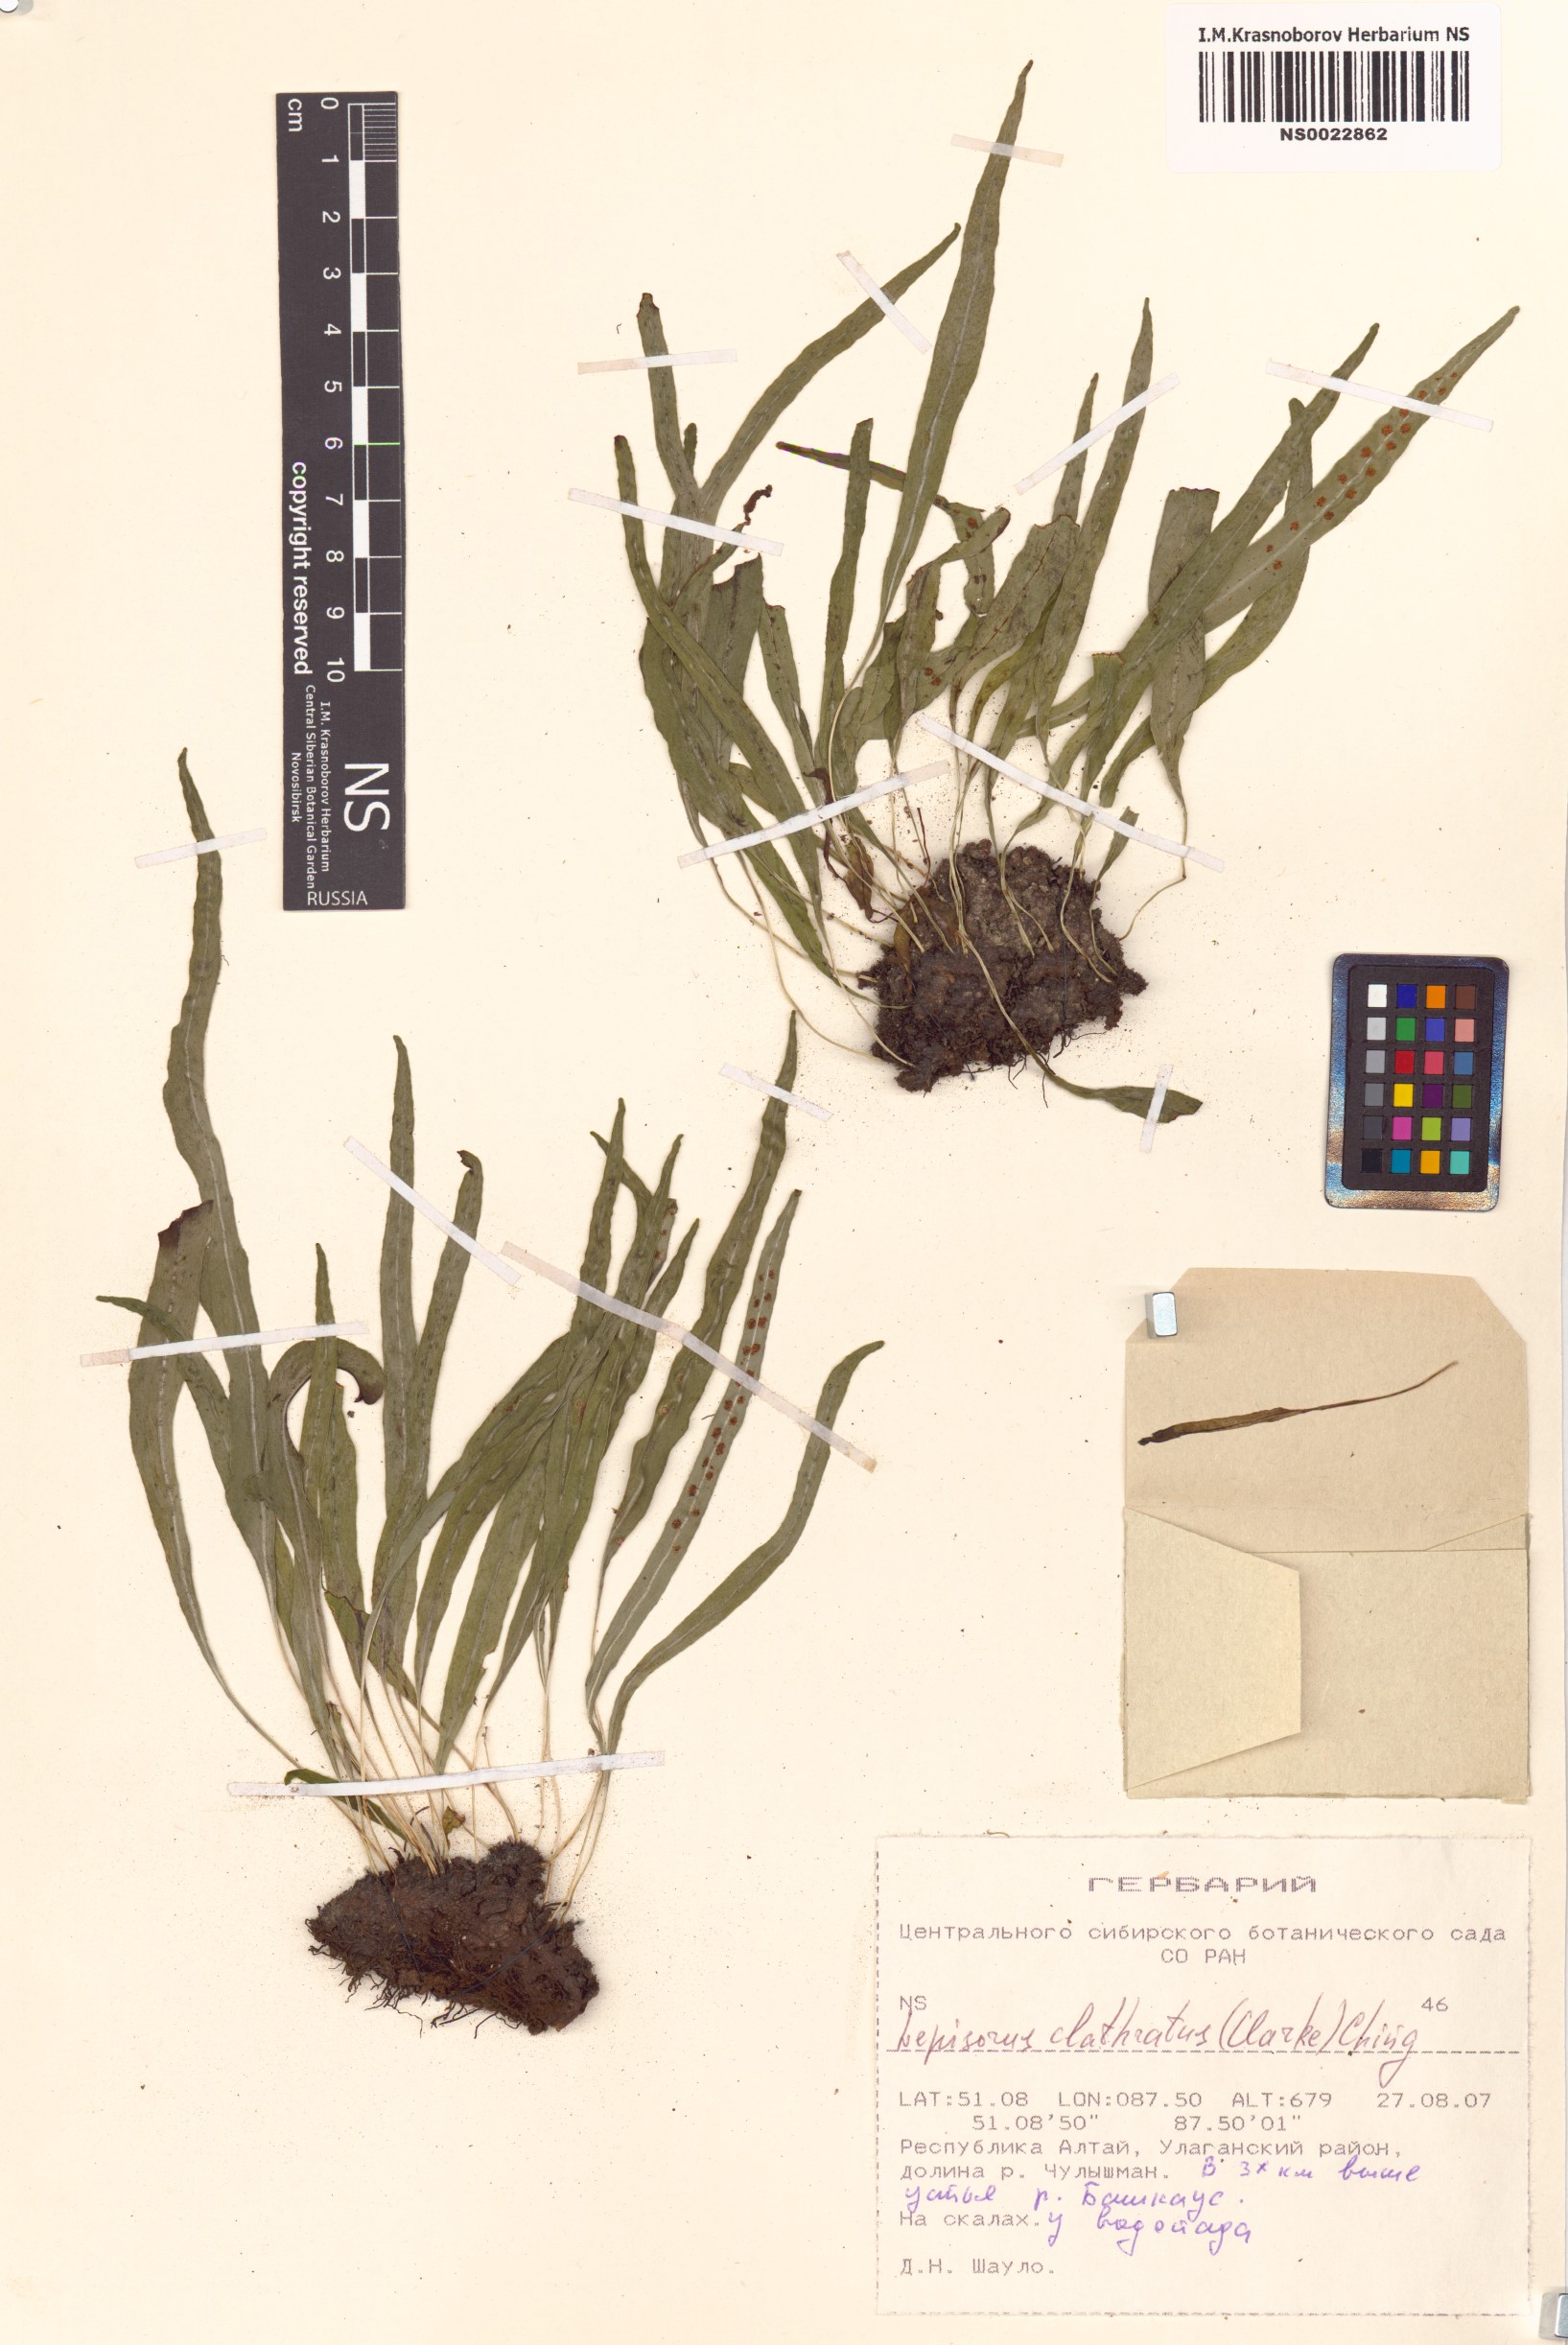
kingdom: Plantae
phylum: Tracheophyta
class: Polypodiopsida
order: Polypodiales
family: Polypodiaceae
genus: Lepisorus
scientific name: Lepisorus clathratus
